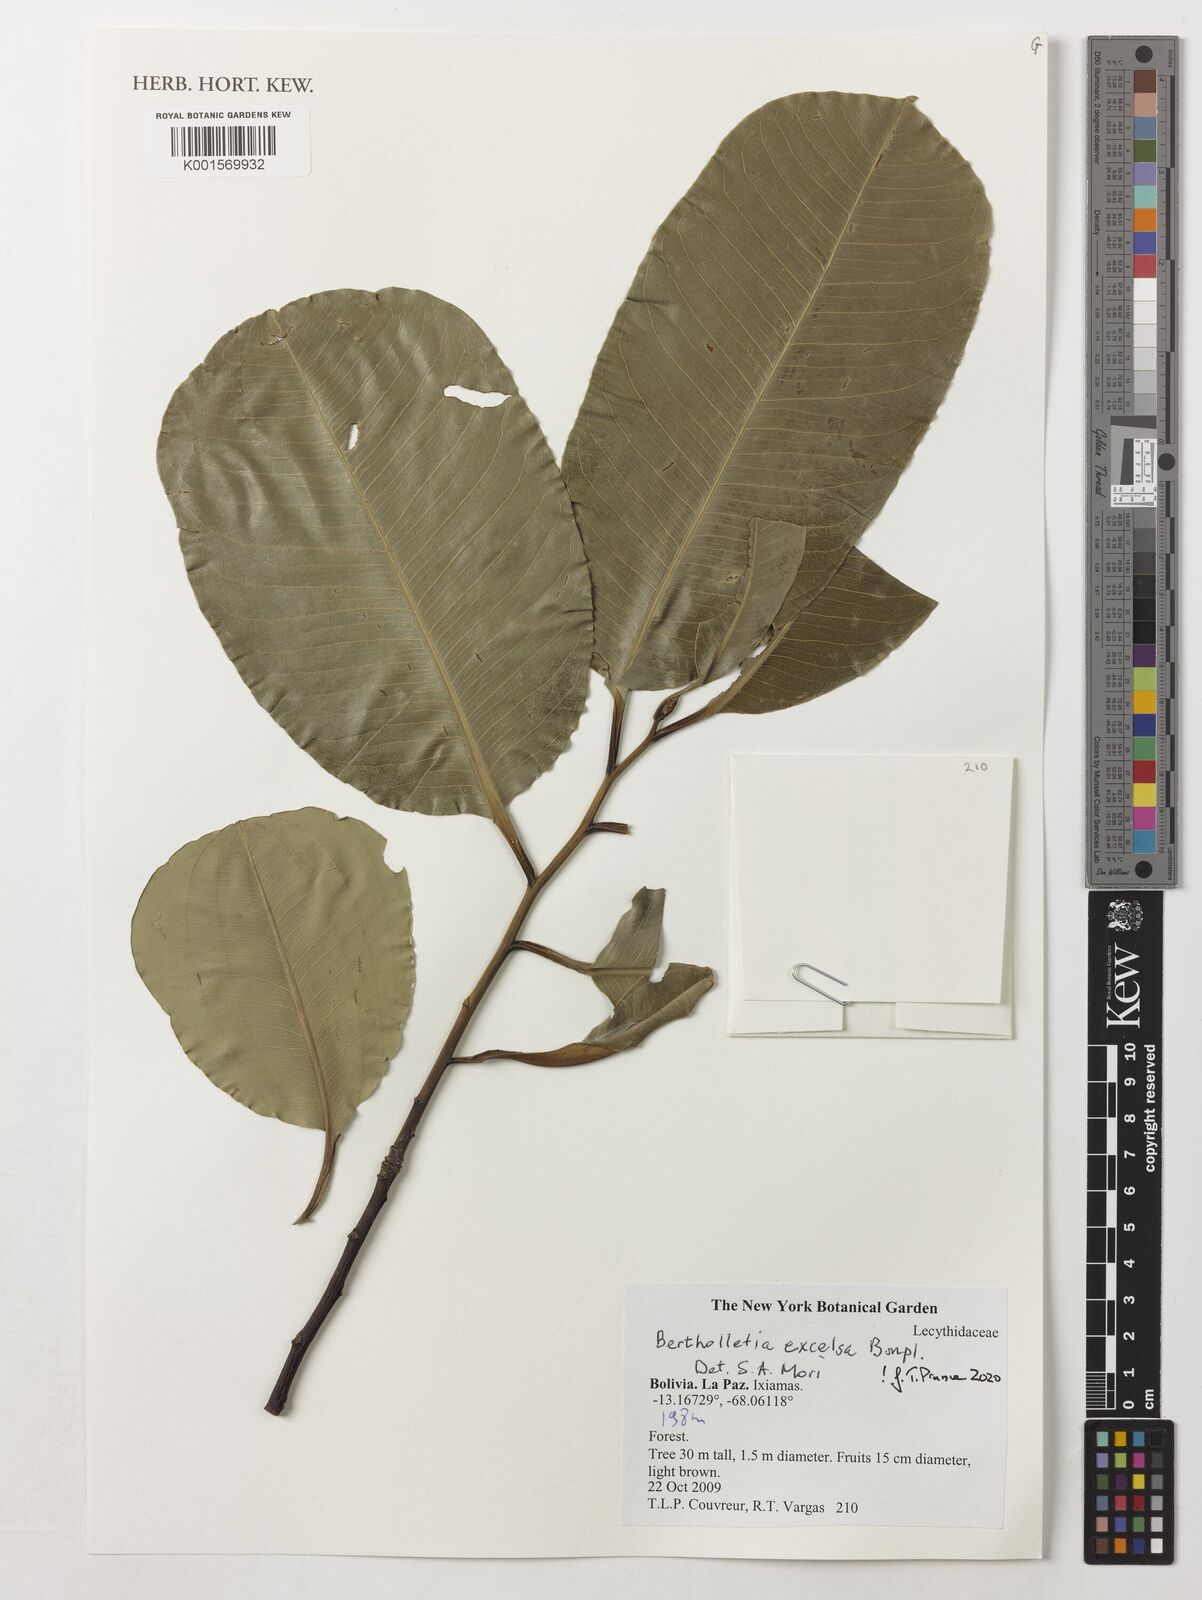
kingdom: Plantae
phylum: Tracheophyta
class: Magnoliopsida
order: Ericales
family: Lecythidaceae
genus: Bertholletia
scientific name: Bertholletia excelsa
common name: Brazil-nut tree
